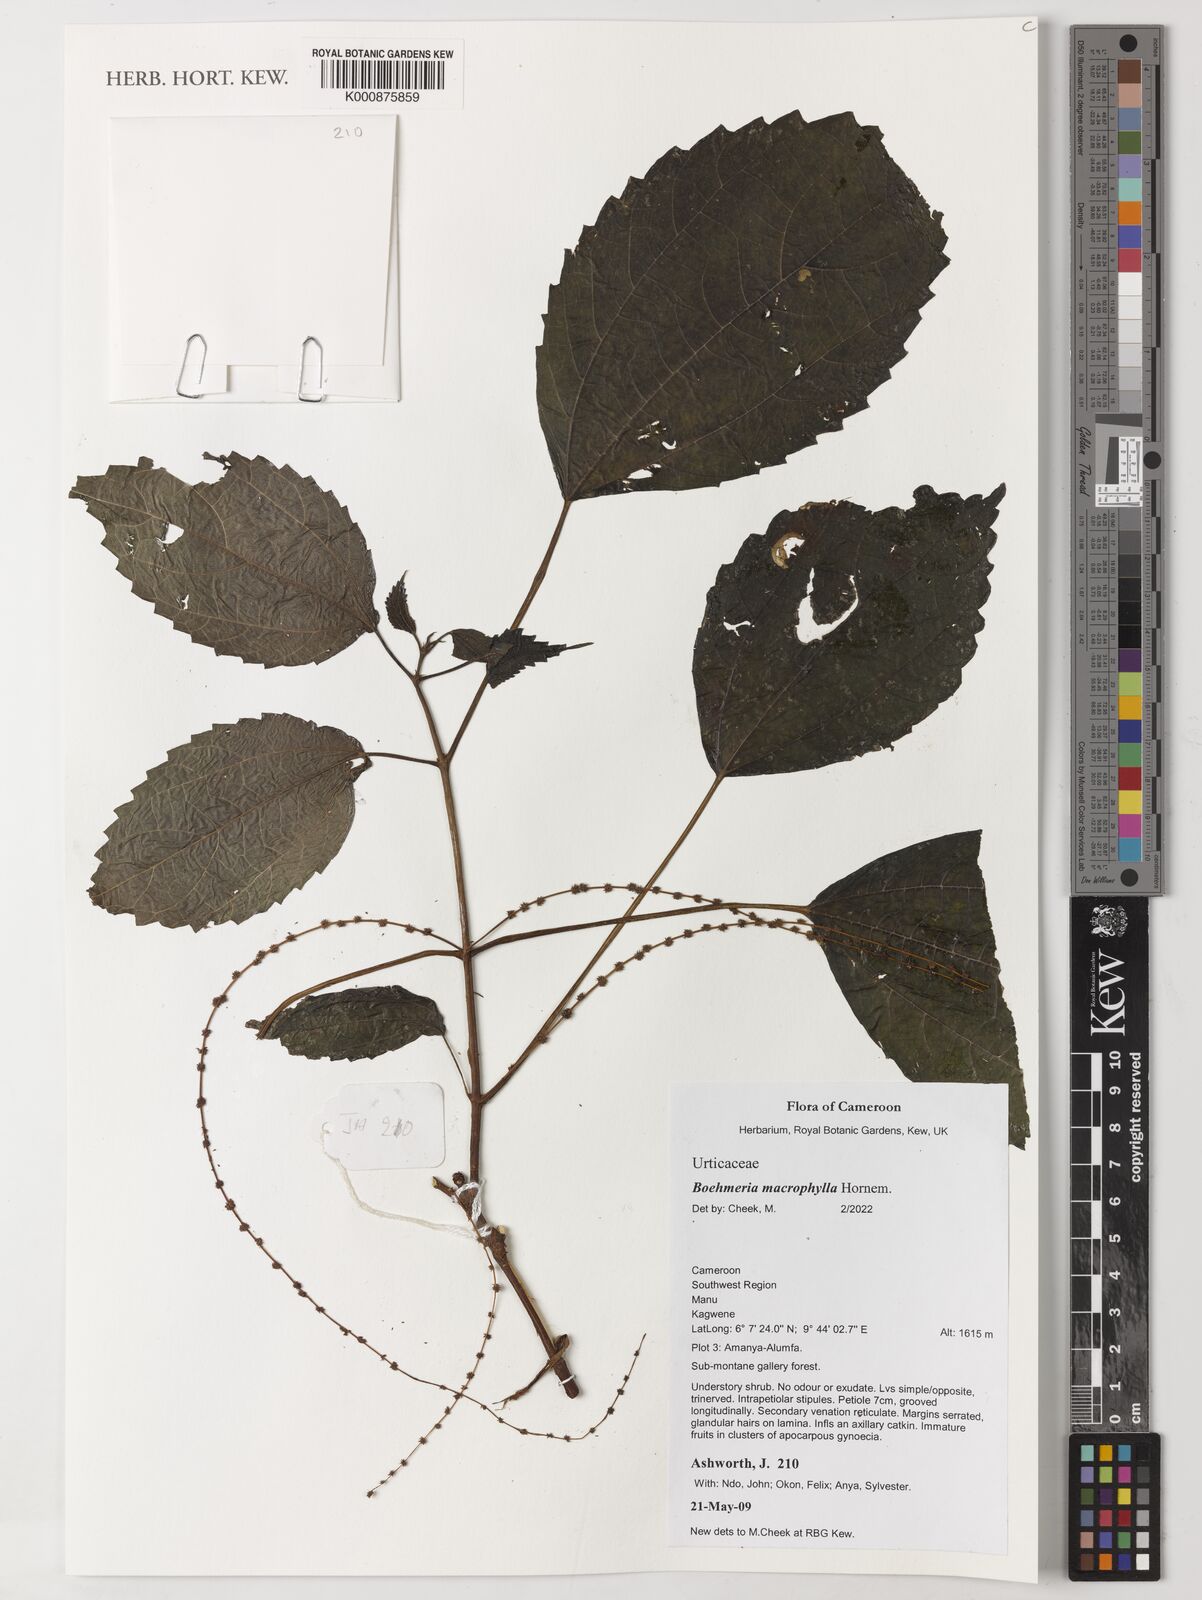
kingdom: Plantae
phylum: Tracheophyta
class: Magnoliopsida
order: Rosales
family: Urticaceae
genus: Boehmeria
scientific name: Boehmeria virgata
